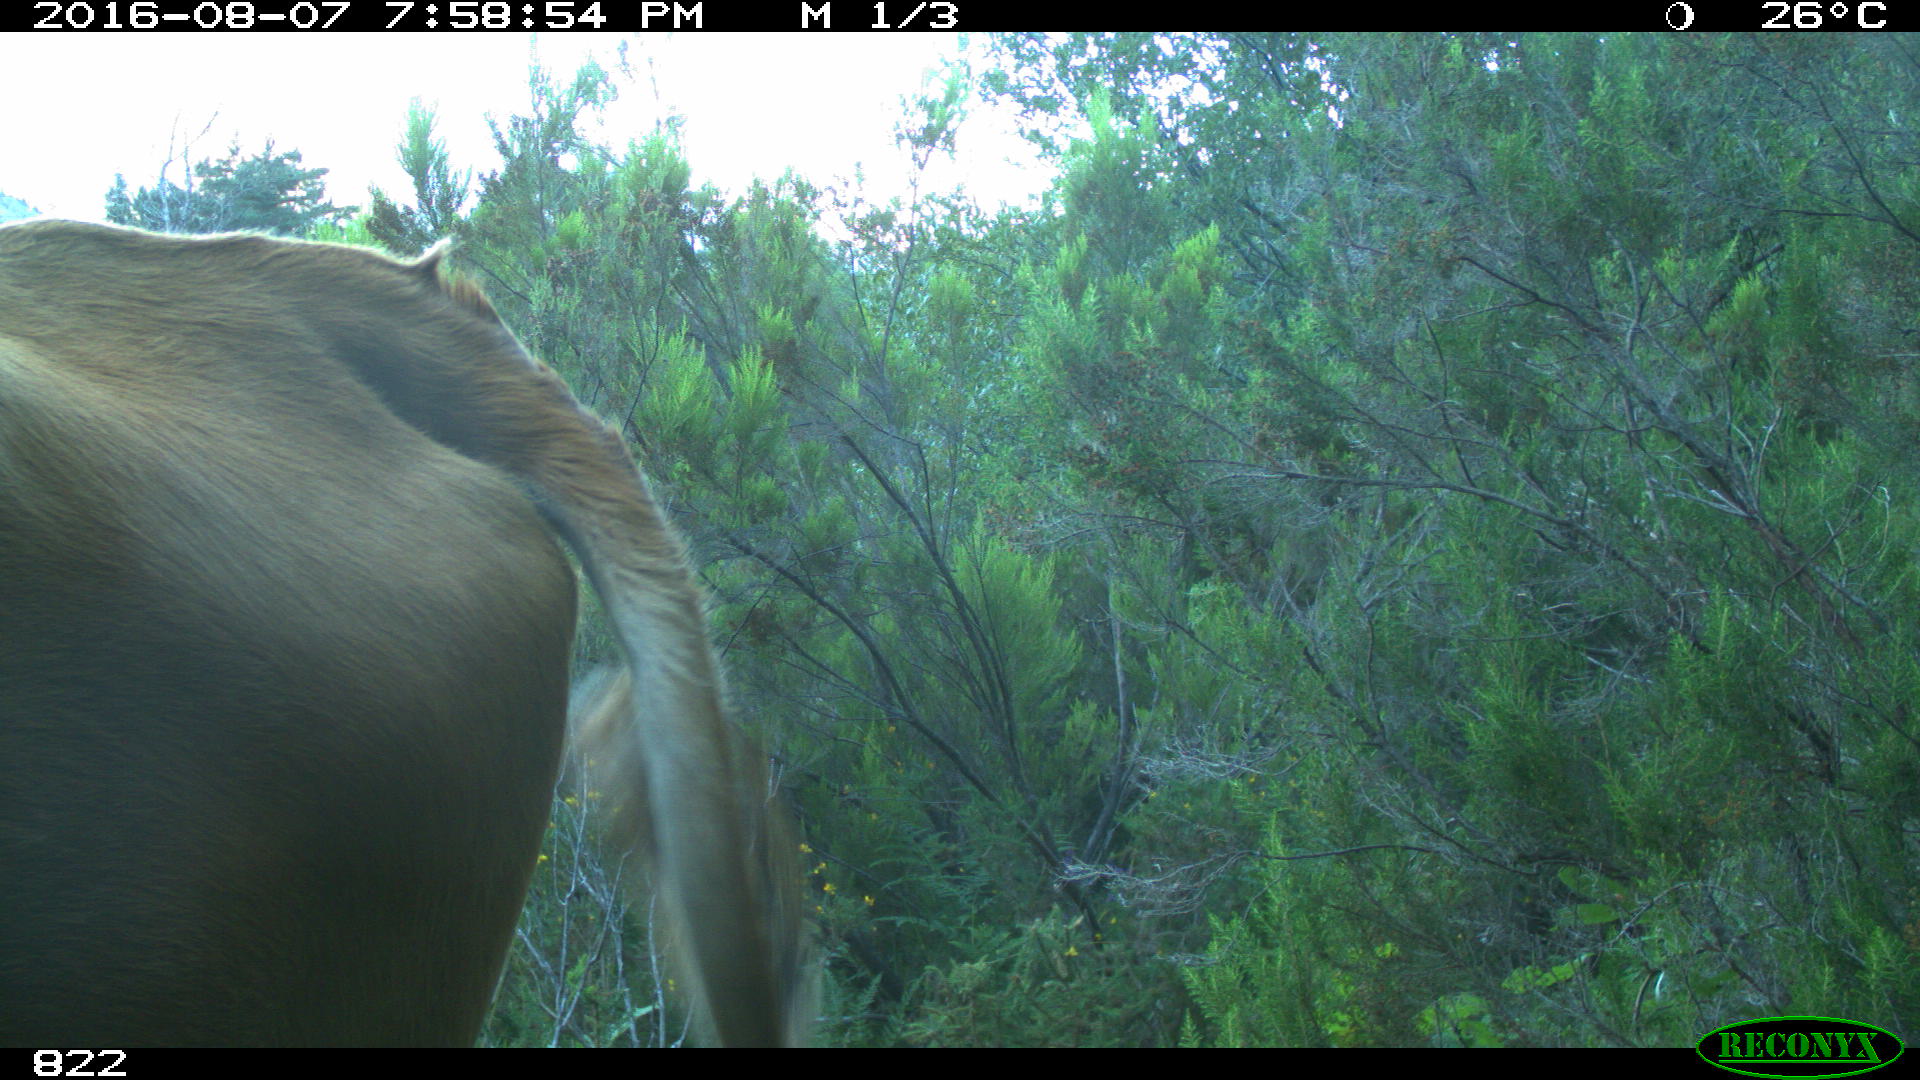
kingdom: Animalia
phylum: Chordata
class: Mammalia
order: Artiodactyla
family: Bovidae
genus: Bos
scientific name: Bos taurus
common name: Domesticated cattle
